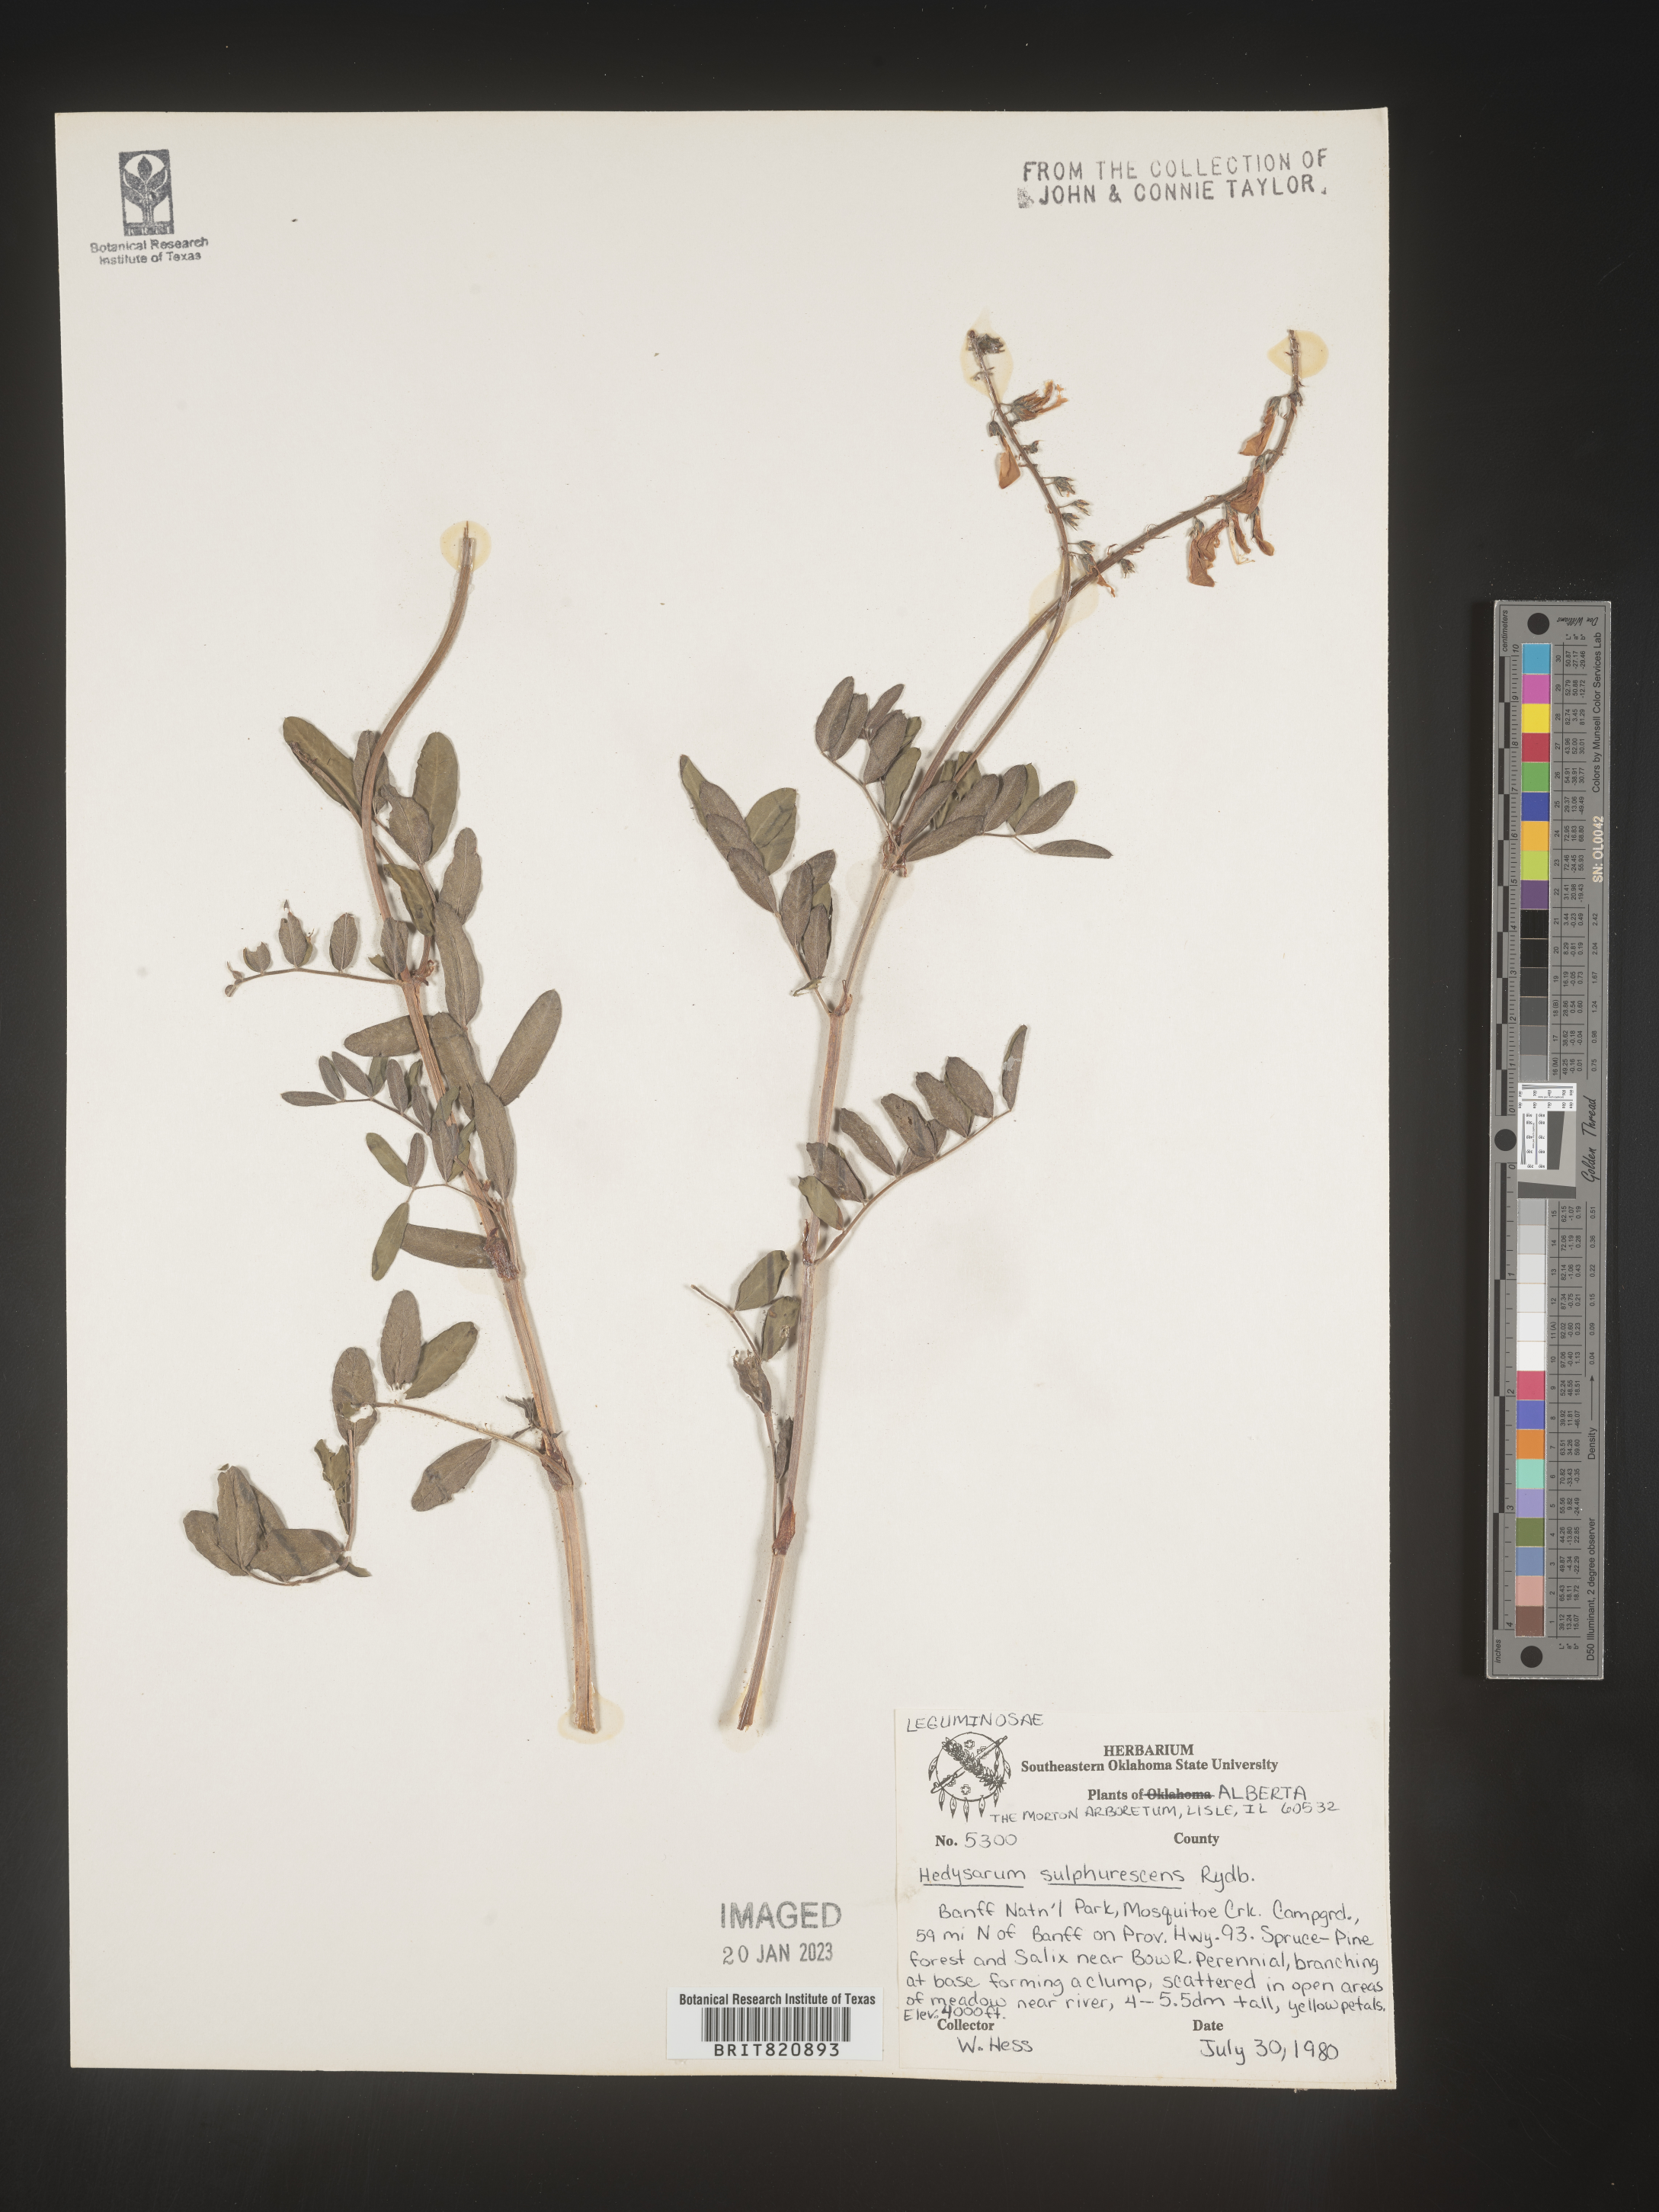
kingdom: Plantae
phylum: Tracheophyta
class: Magnoliopsida
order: Fabales
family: Fabaceae
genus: Hedysarum
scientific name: Hedysarum sulphurescens
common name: Sulphur hedysarum
